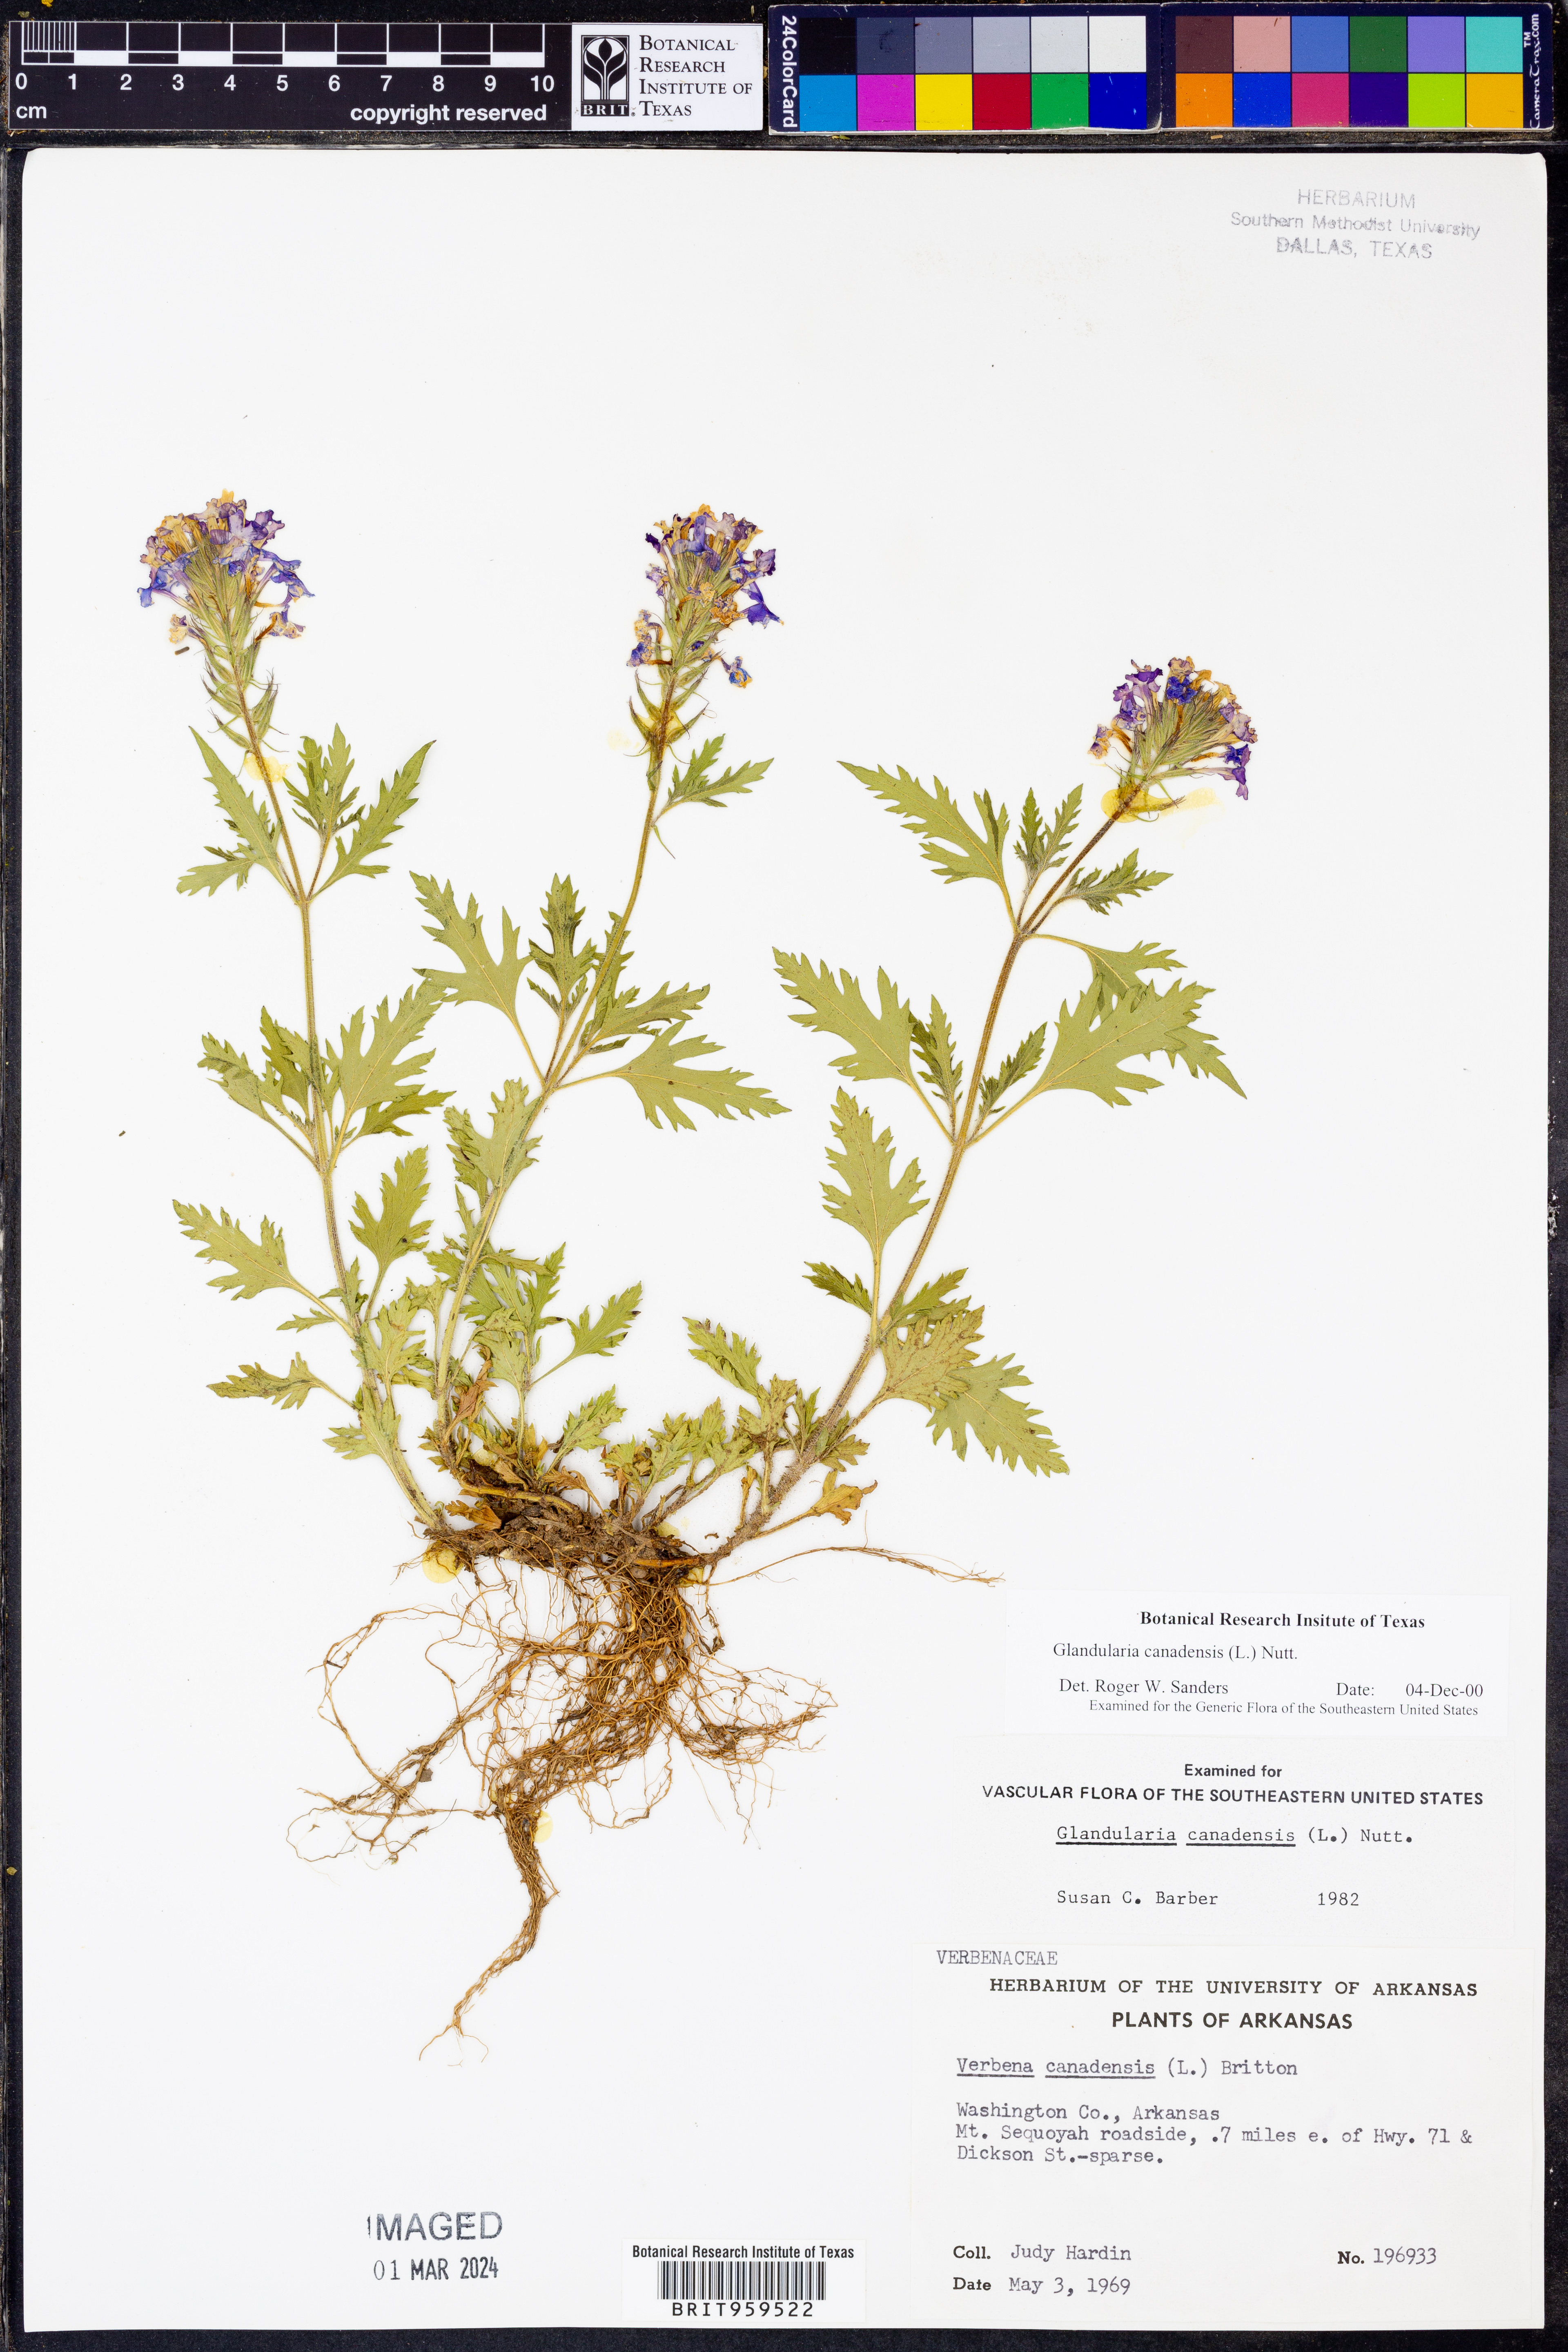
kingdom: Plantae
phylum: Tracheophyta
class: Magnoliopsida
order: Lamiales
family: Verbenaceae
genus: Verbena
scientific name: Verbena canadensis
